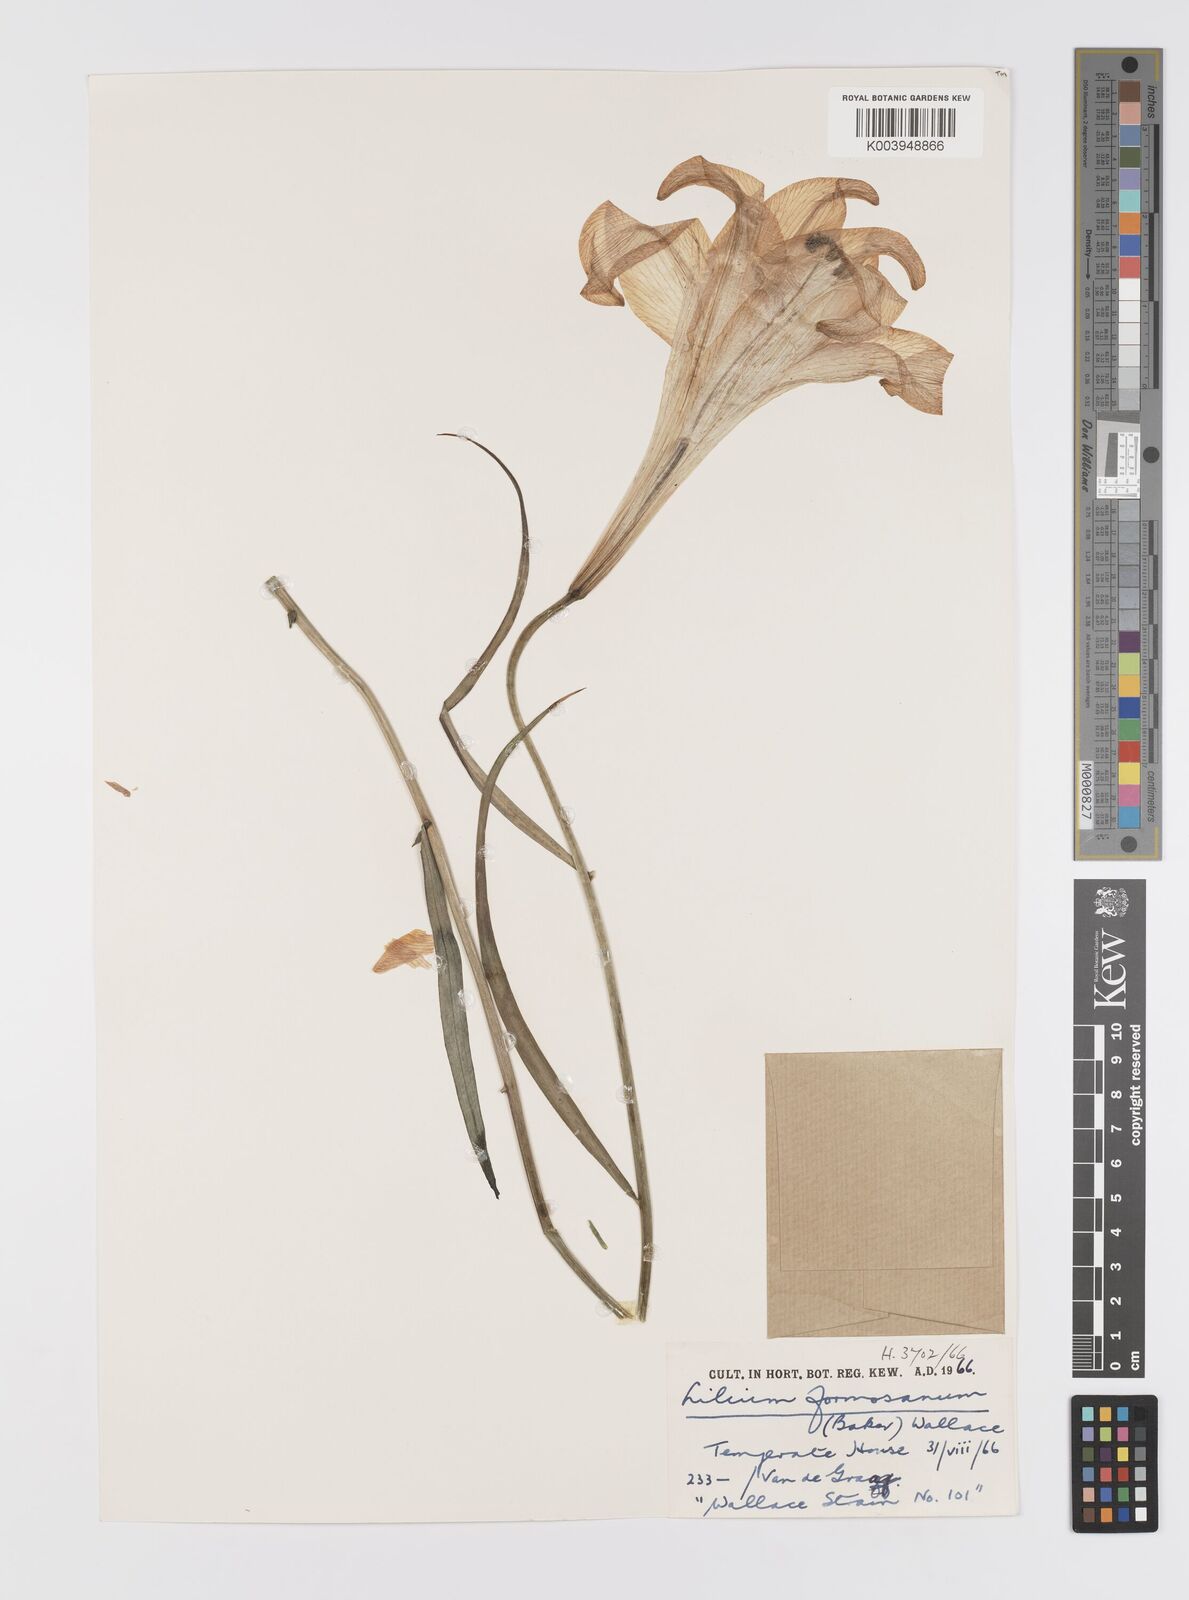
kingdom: Plantae
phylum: Tracheophyta
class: Liliopsida
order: Liliales
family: Liliaceae
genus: Lilium
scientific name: Lilium formosanum
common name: Formosa lily
